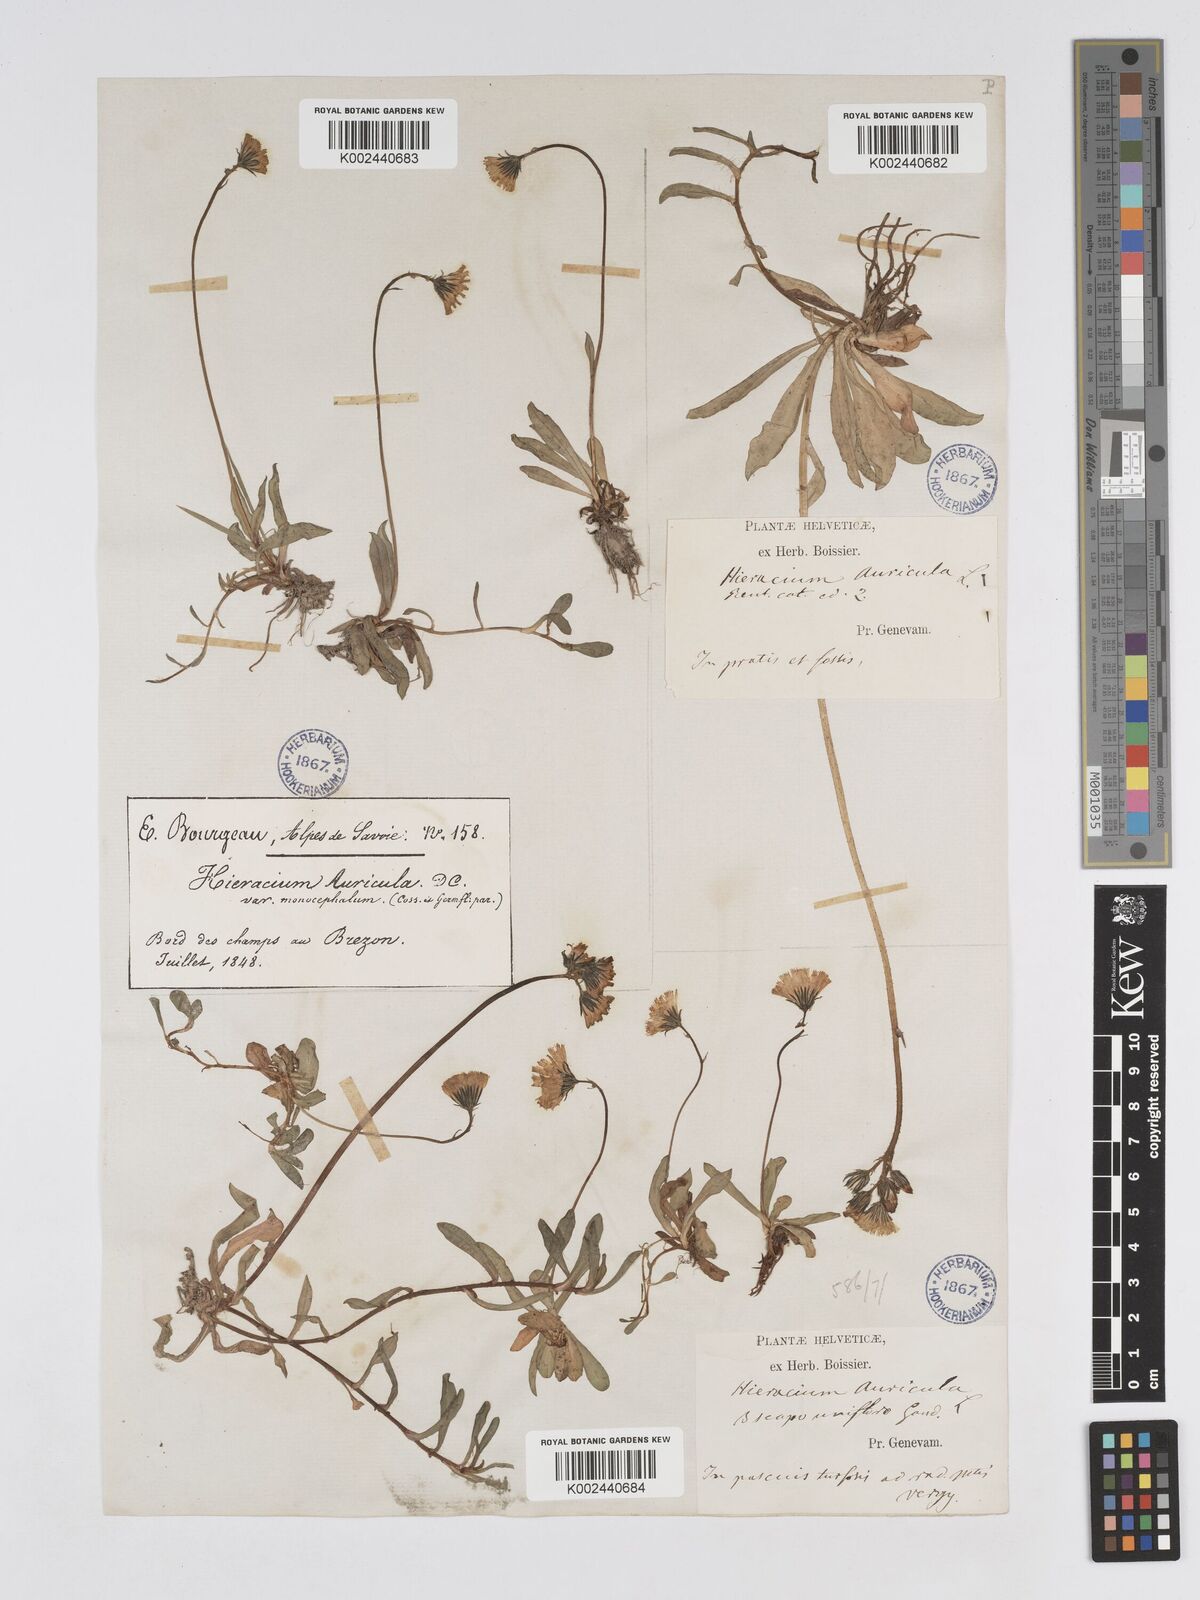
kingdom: Plantae
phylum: Tracheophyta
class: Magnoliopsida
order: Asterales
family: Asteraceae
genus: Pilosella
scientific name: Pilosella floribunda
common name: Glaucous hawkweed
